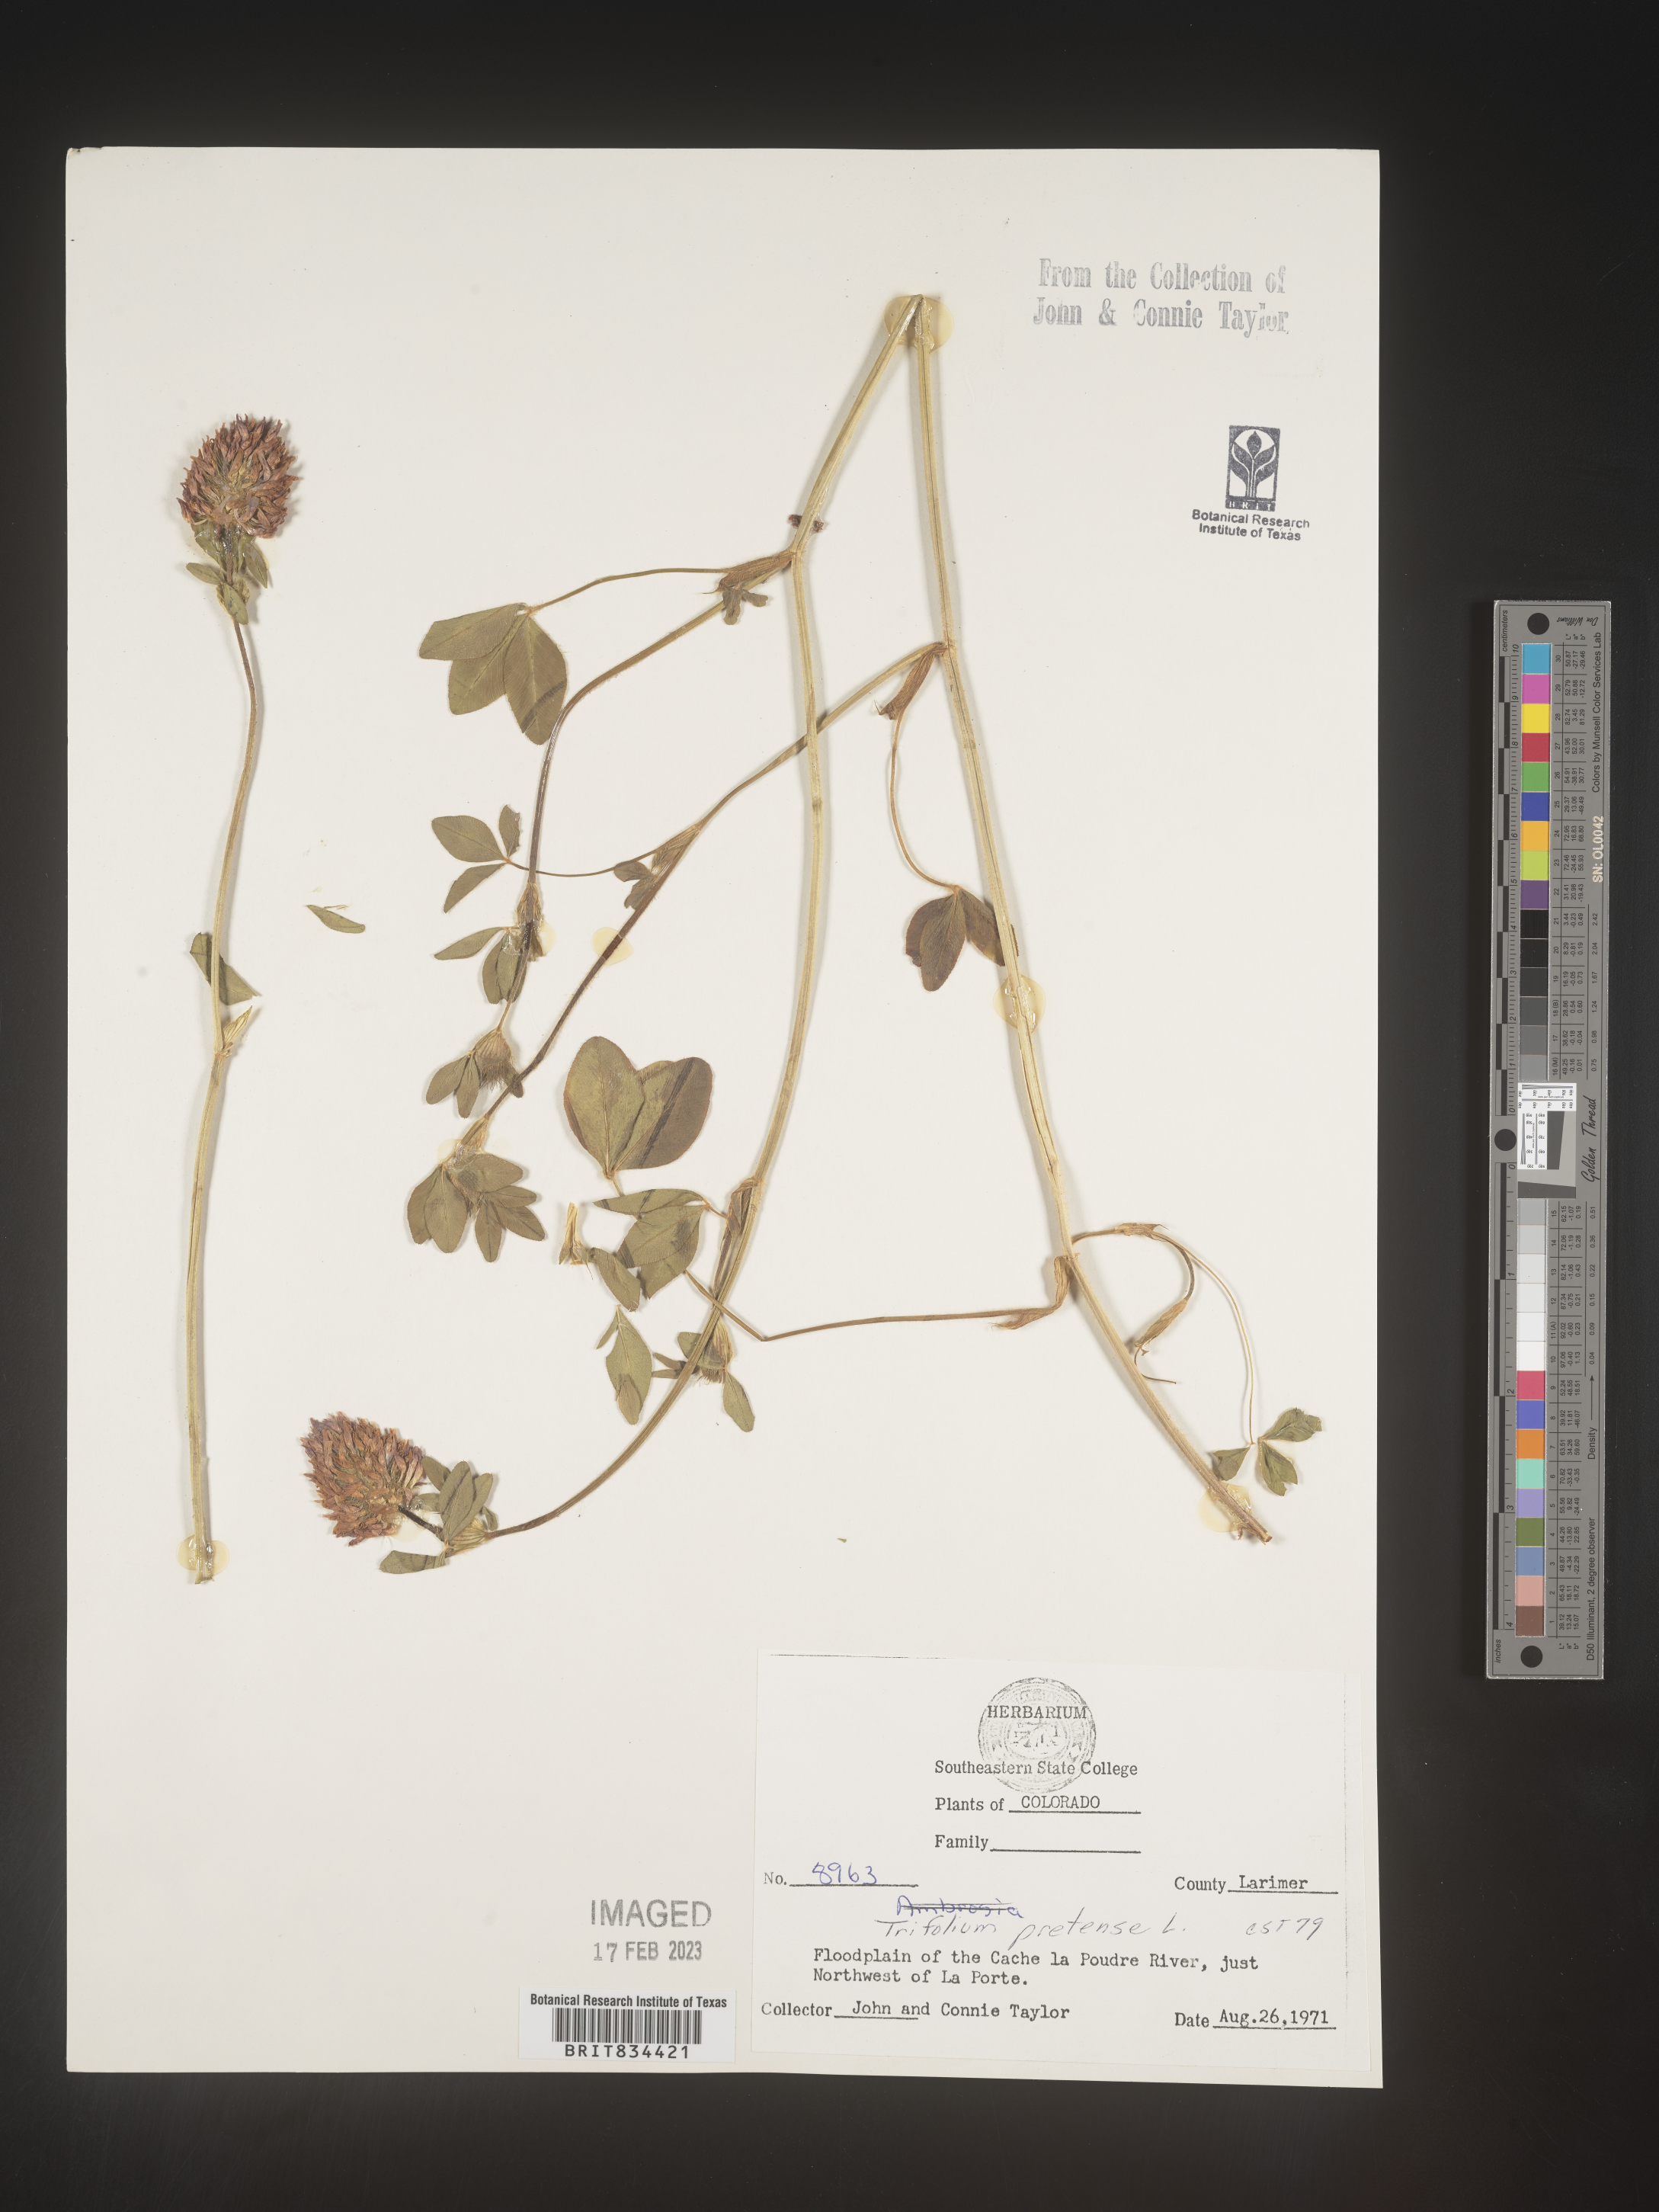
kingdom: Plantae
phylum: Tracheophyta
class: Magnoliopsida
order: Fabales
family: Fabaceae
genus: Trifolium
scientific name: Trifolium pratense
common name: Red clover
